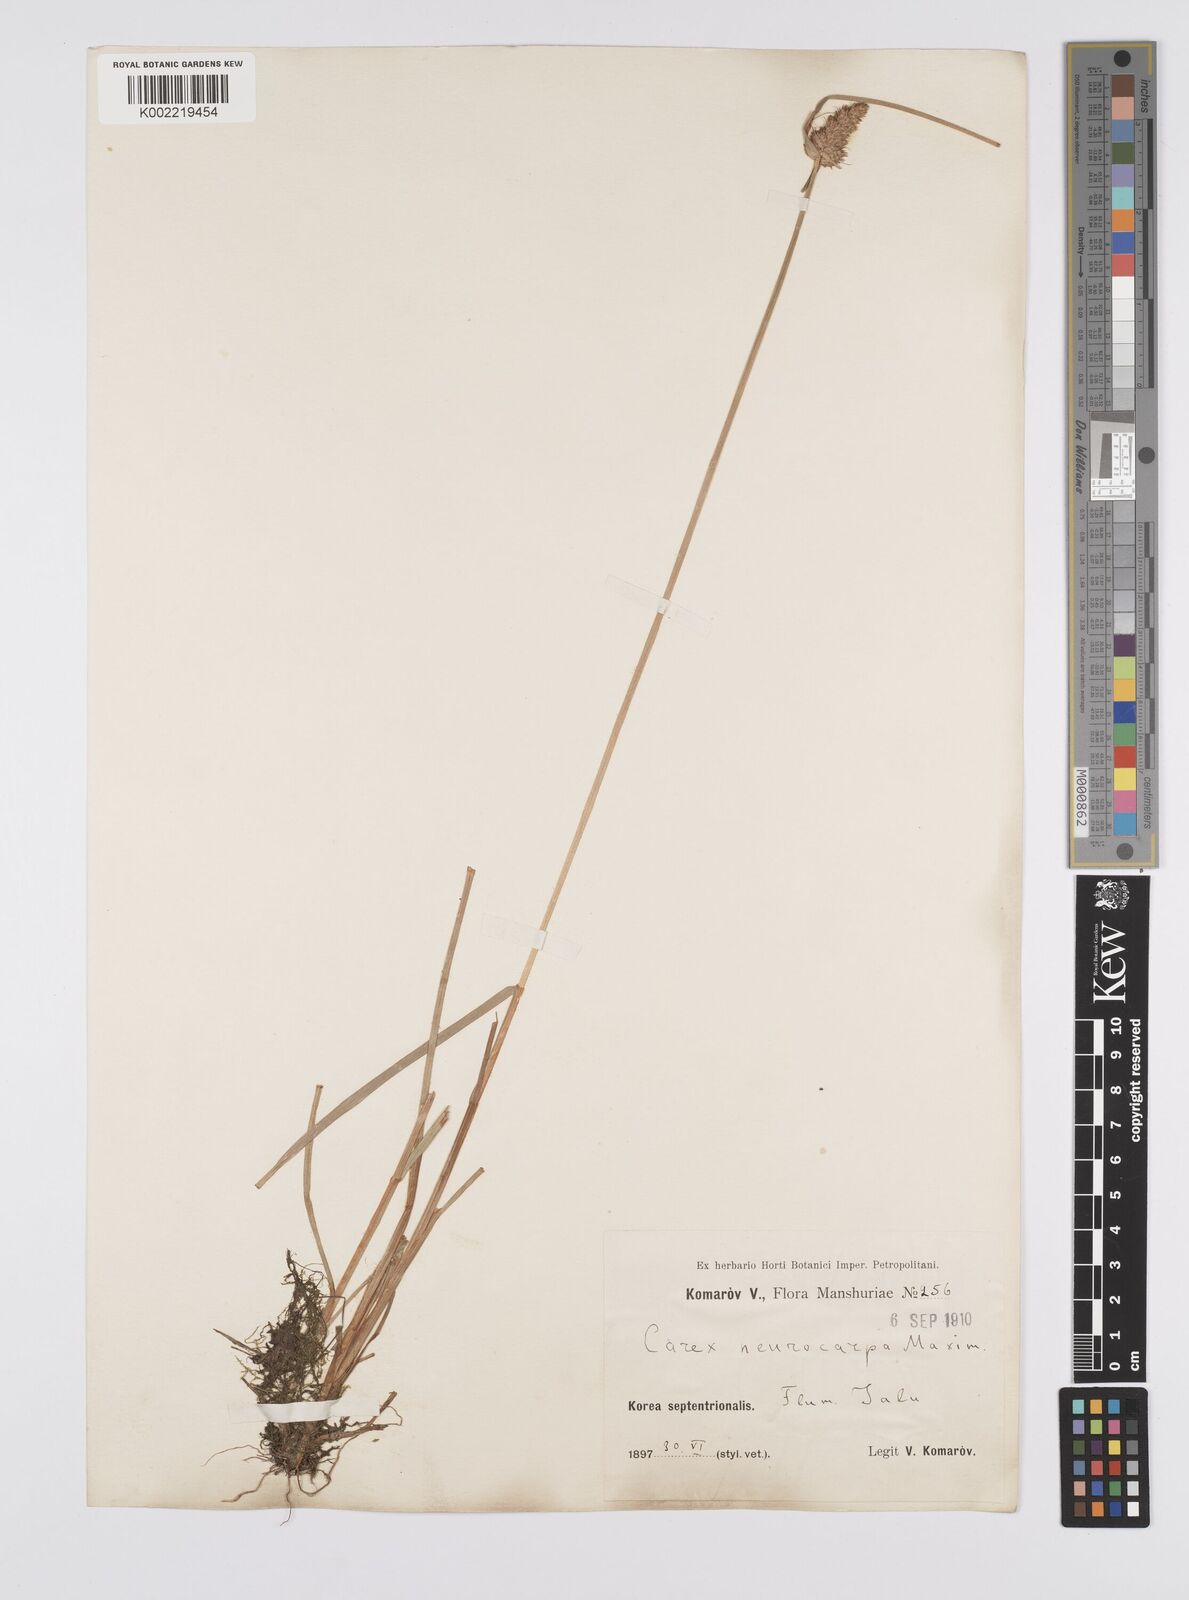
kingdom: Plantae
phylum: Tracheophyta
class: Liliopsida
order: Poales
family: Cyperaceae
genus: Carex
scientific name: Carex neurocarpa
